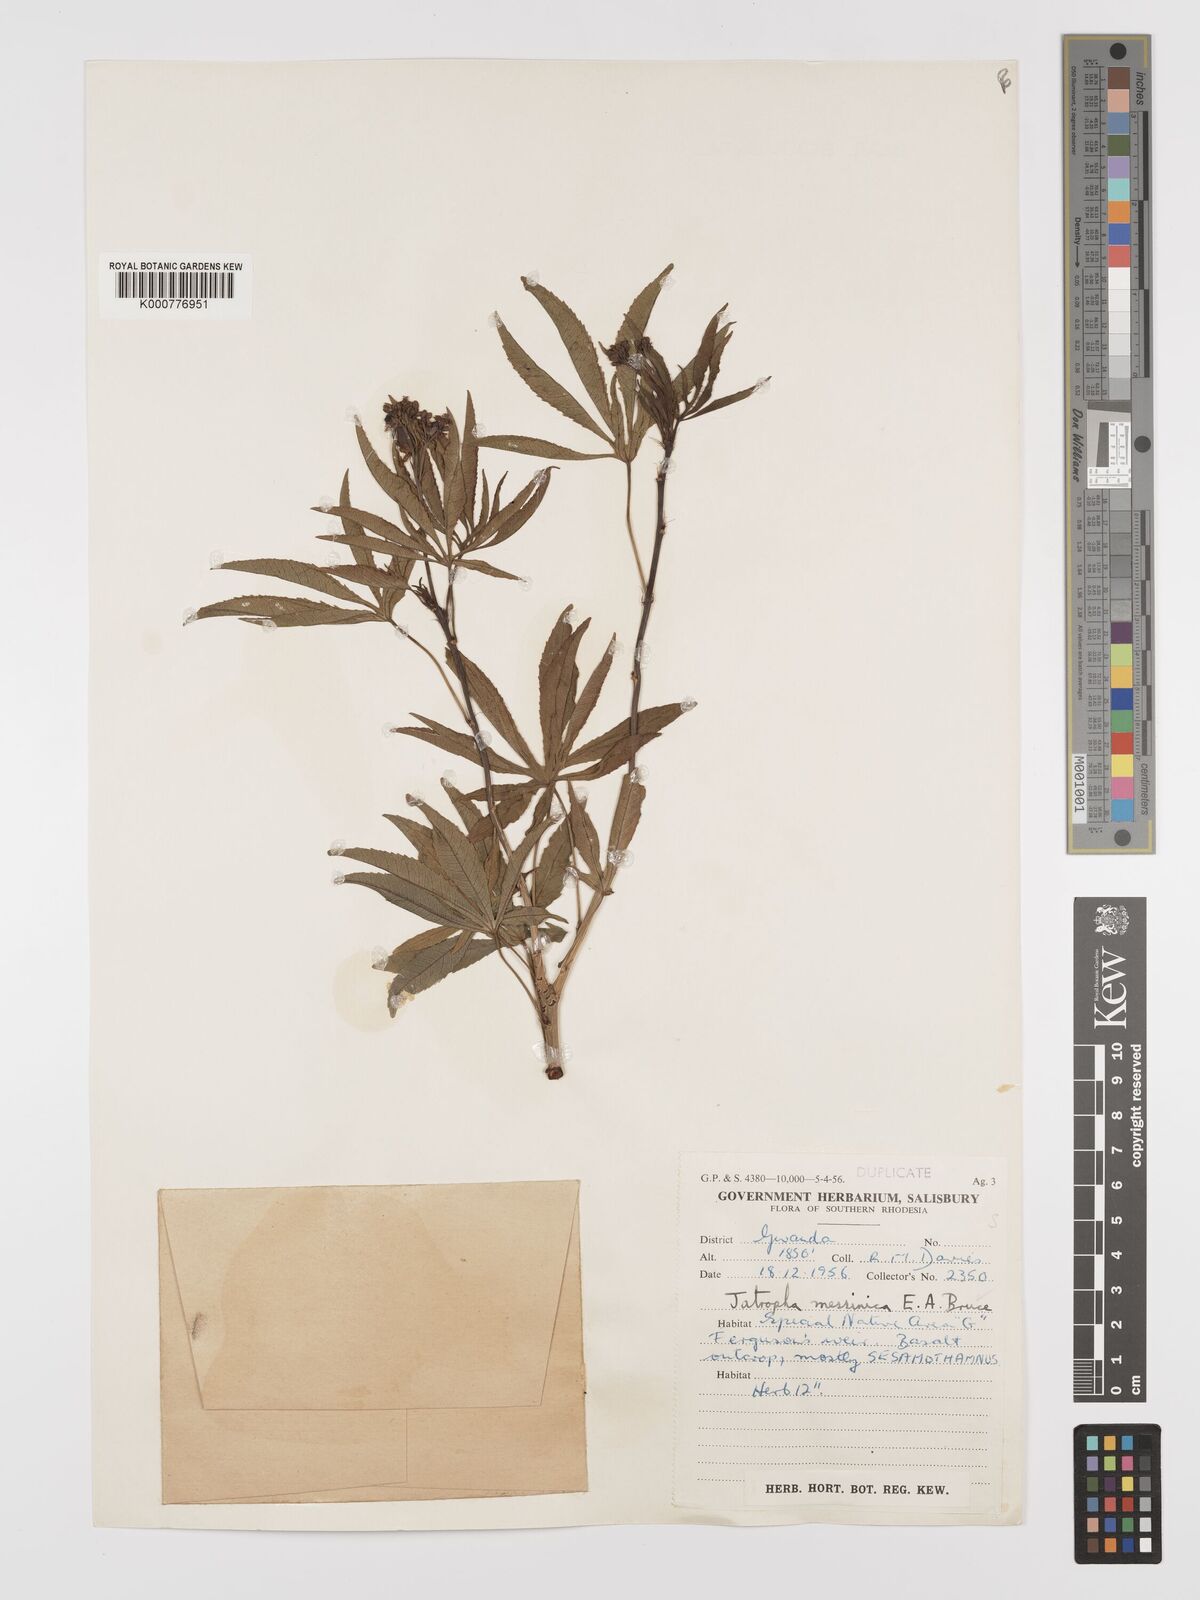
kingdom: Plantae
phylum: Tracheophyta
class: Magnoliopsida
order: Malpighiales
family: Euphorbiaceae
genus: Jatropha
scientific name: Jatropha spicata
